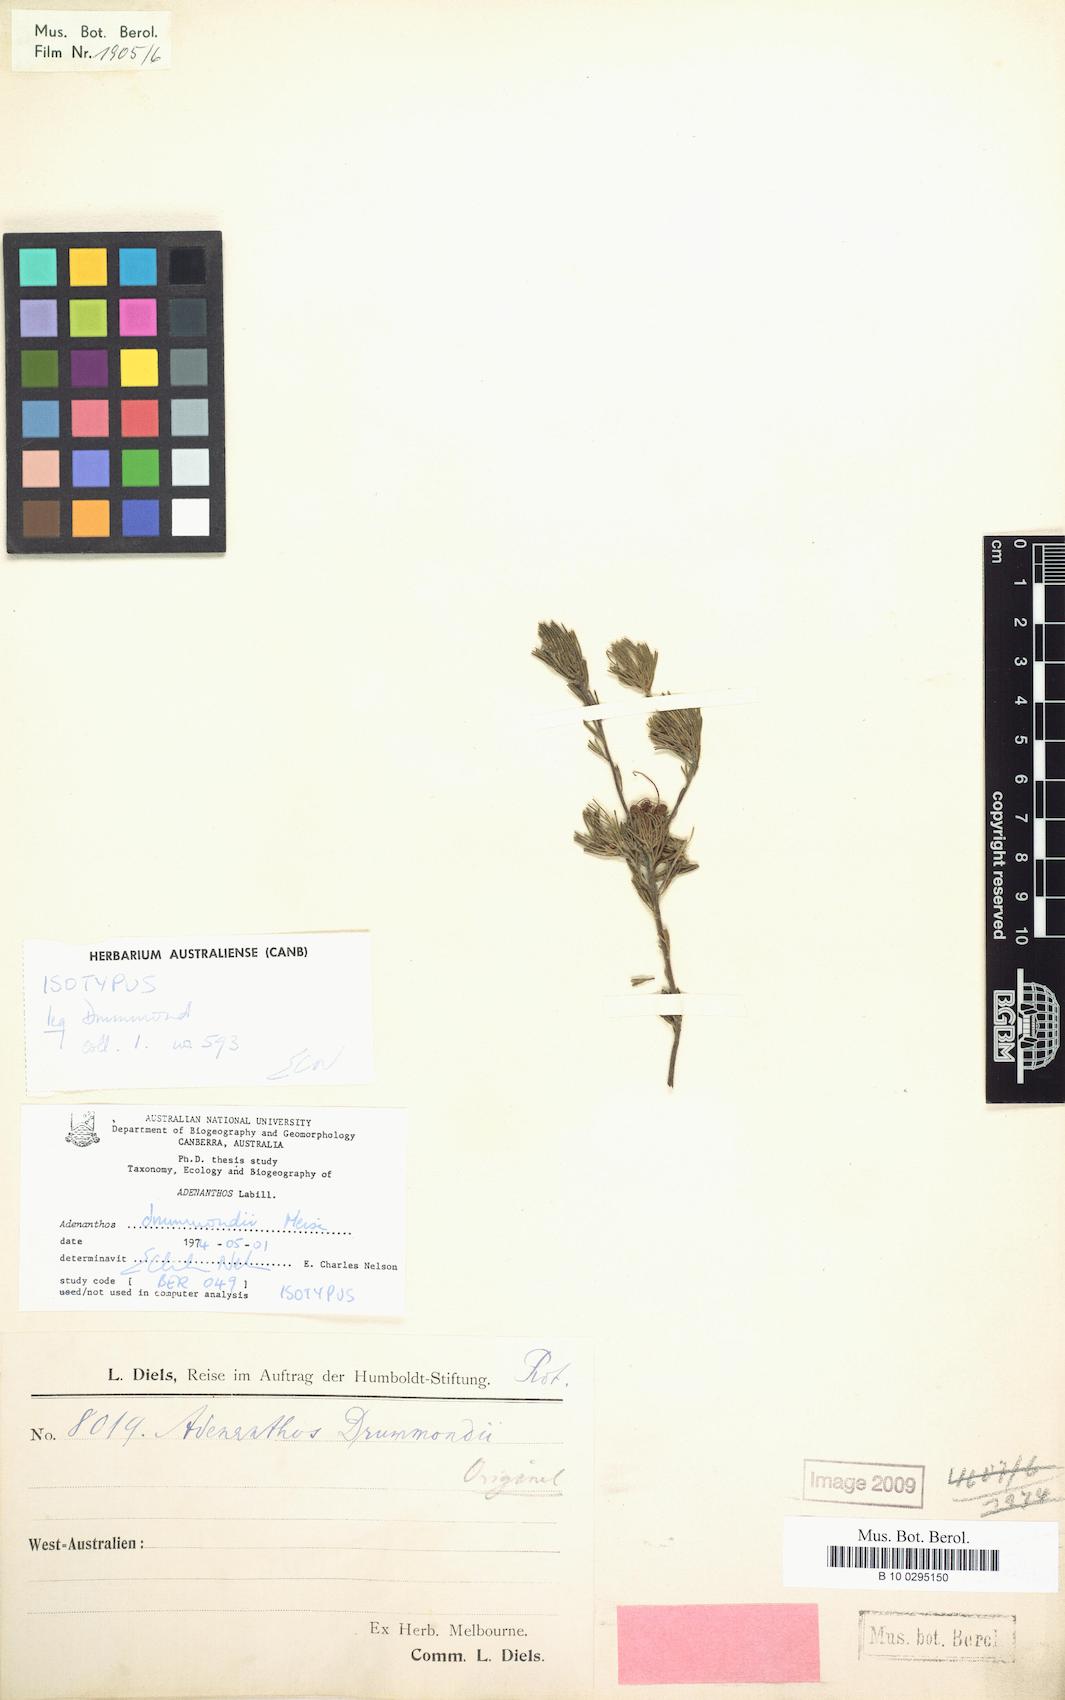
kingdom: Plantae
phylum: Tracheophyta
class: Magnoliopsida
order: Proteales
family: Proteaceae
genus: Adenanthos
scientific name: Adenanthos drummondii
